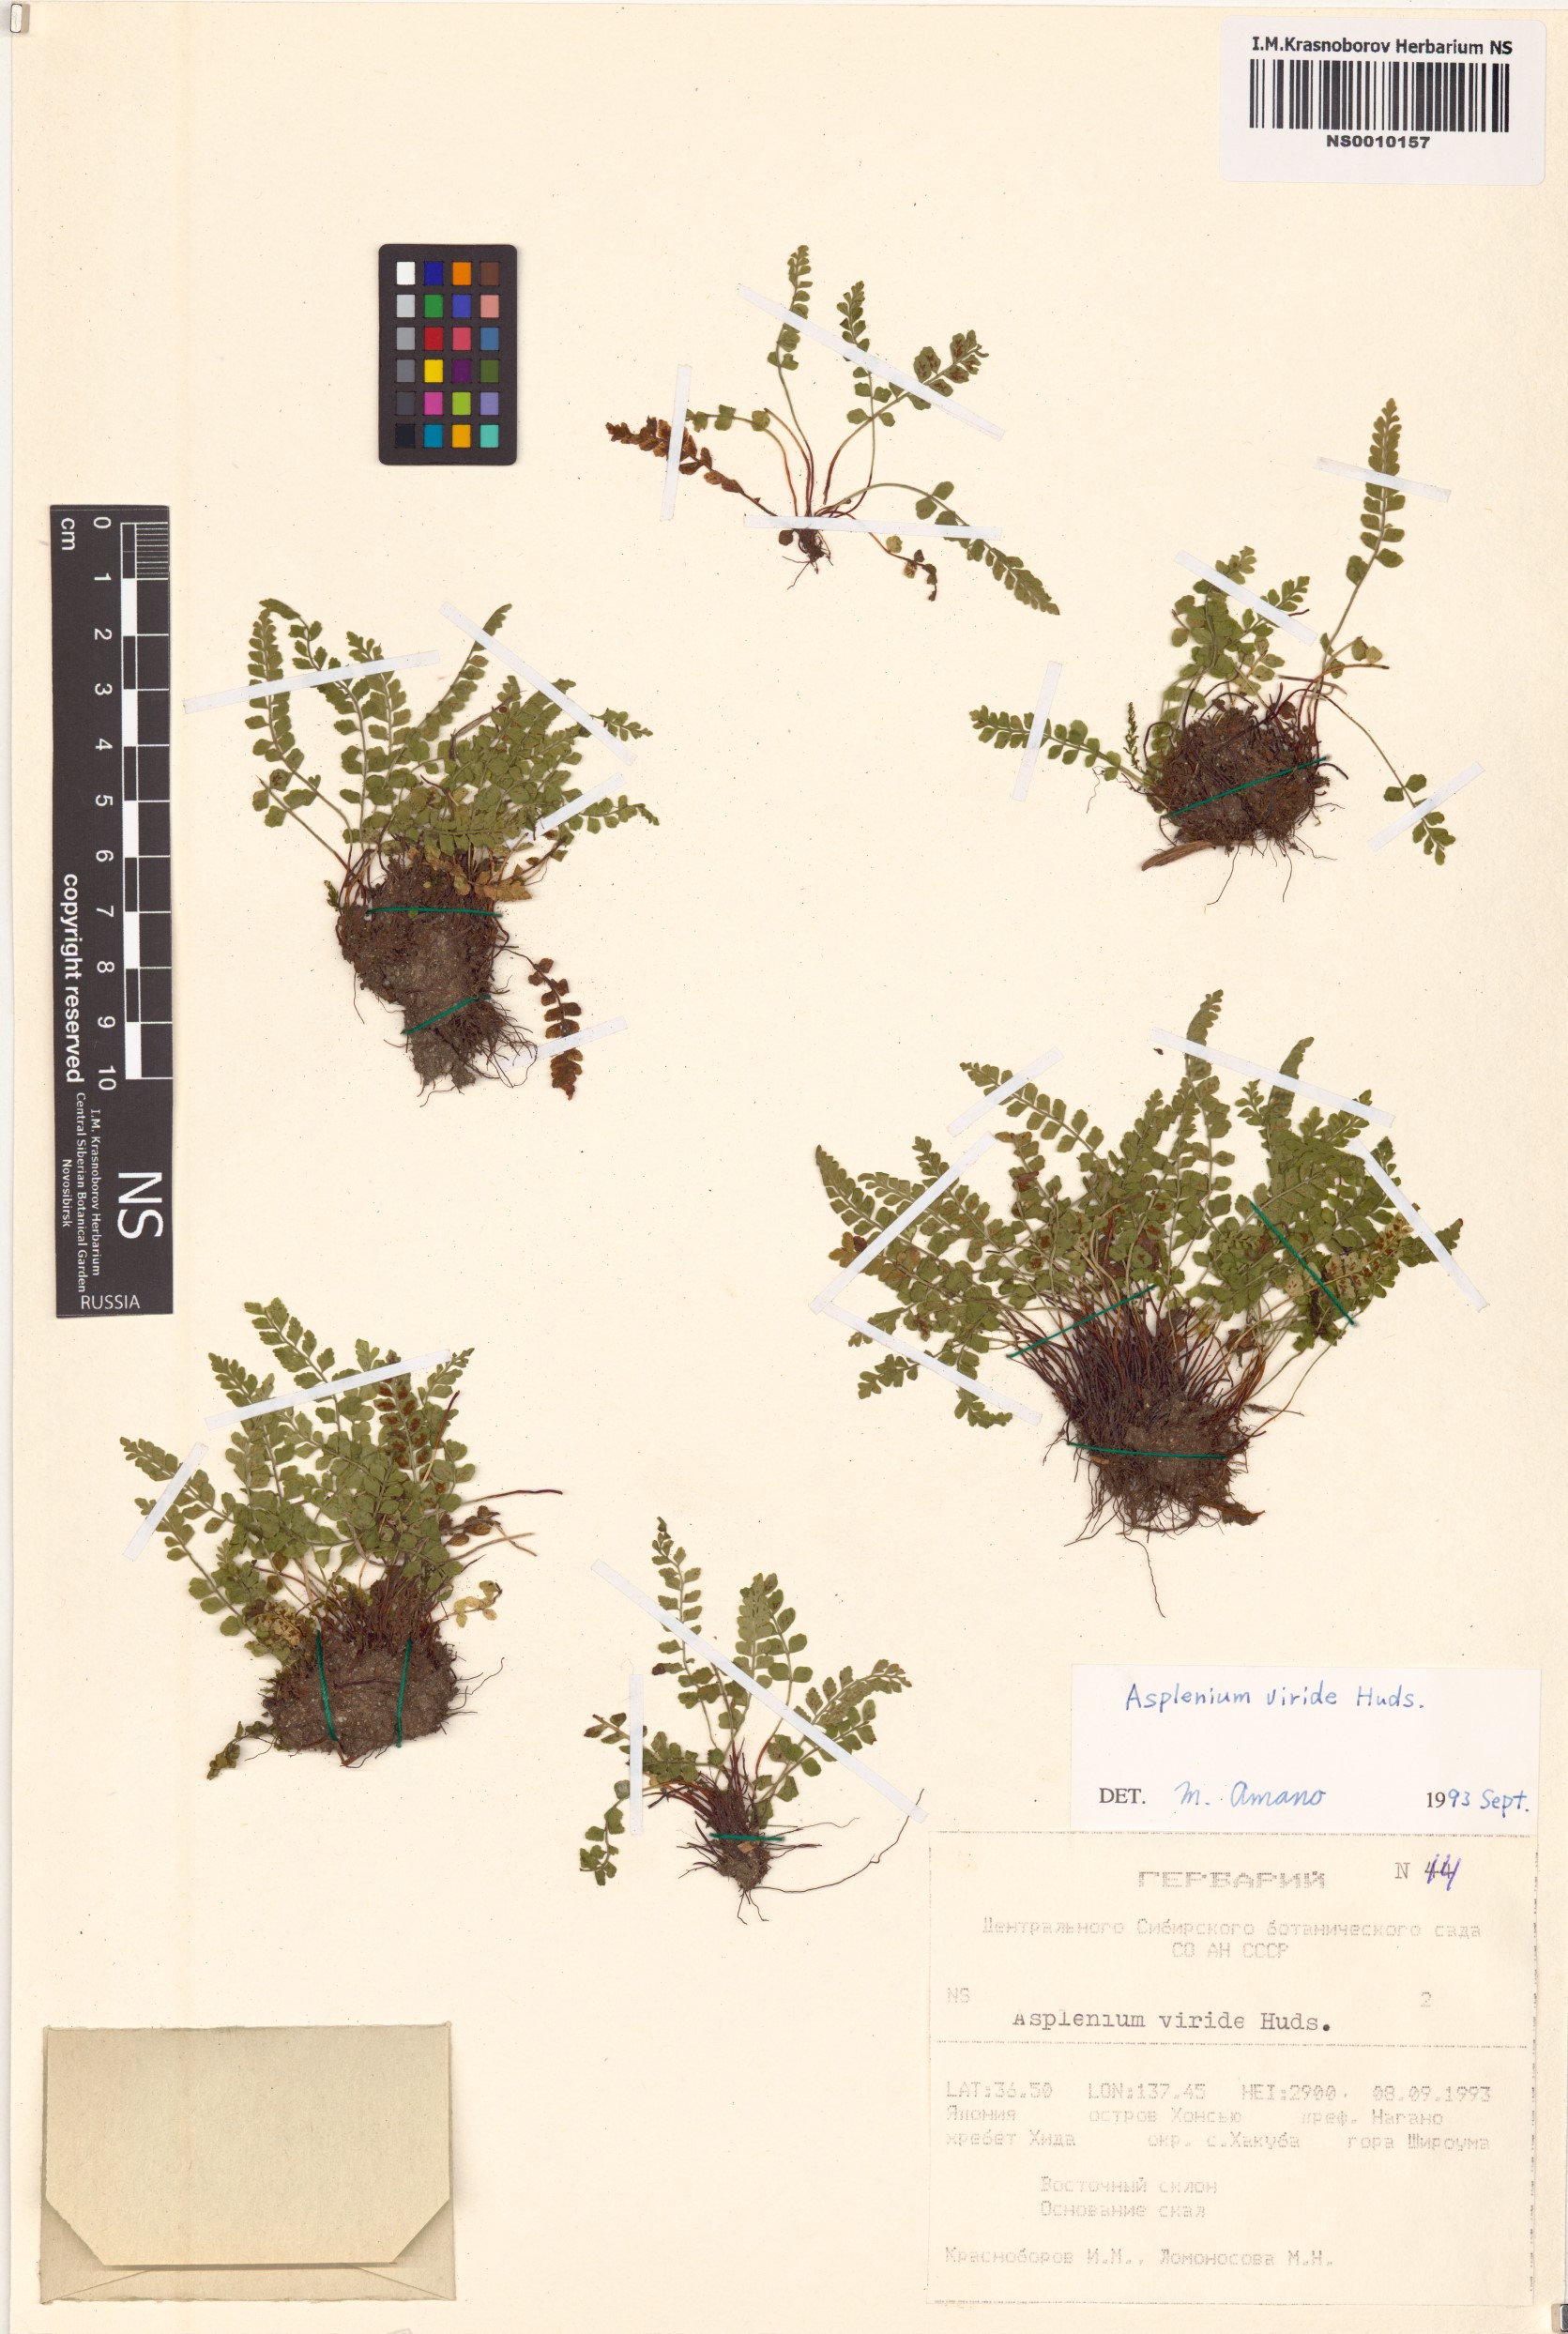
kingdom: Plantae
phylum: Tracheophyta
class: Polypodiopsida
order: Polypodiales
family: Aspleniaceae
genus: Asplenium
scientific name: Asplenium viride
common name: Green spleenwort
